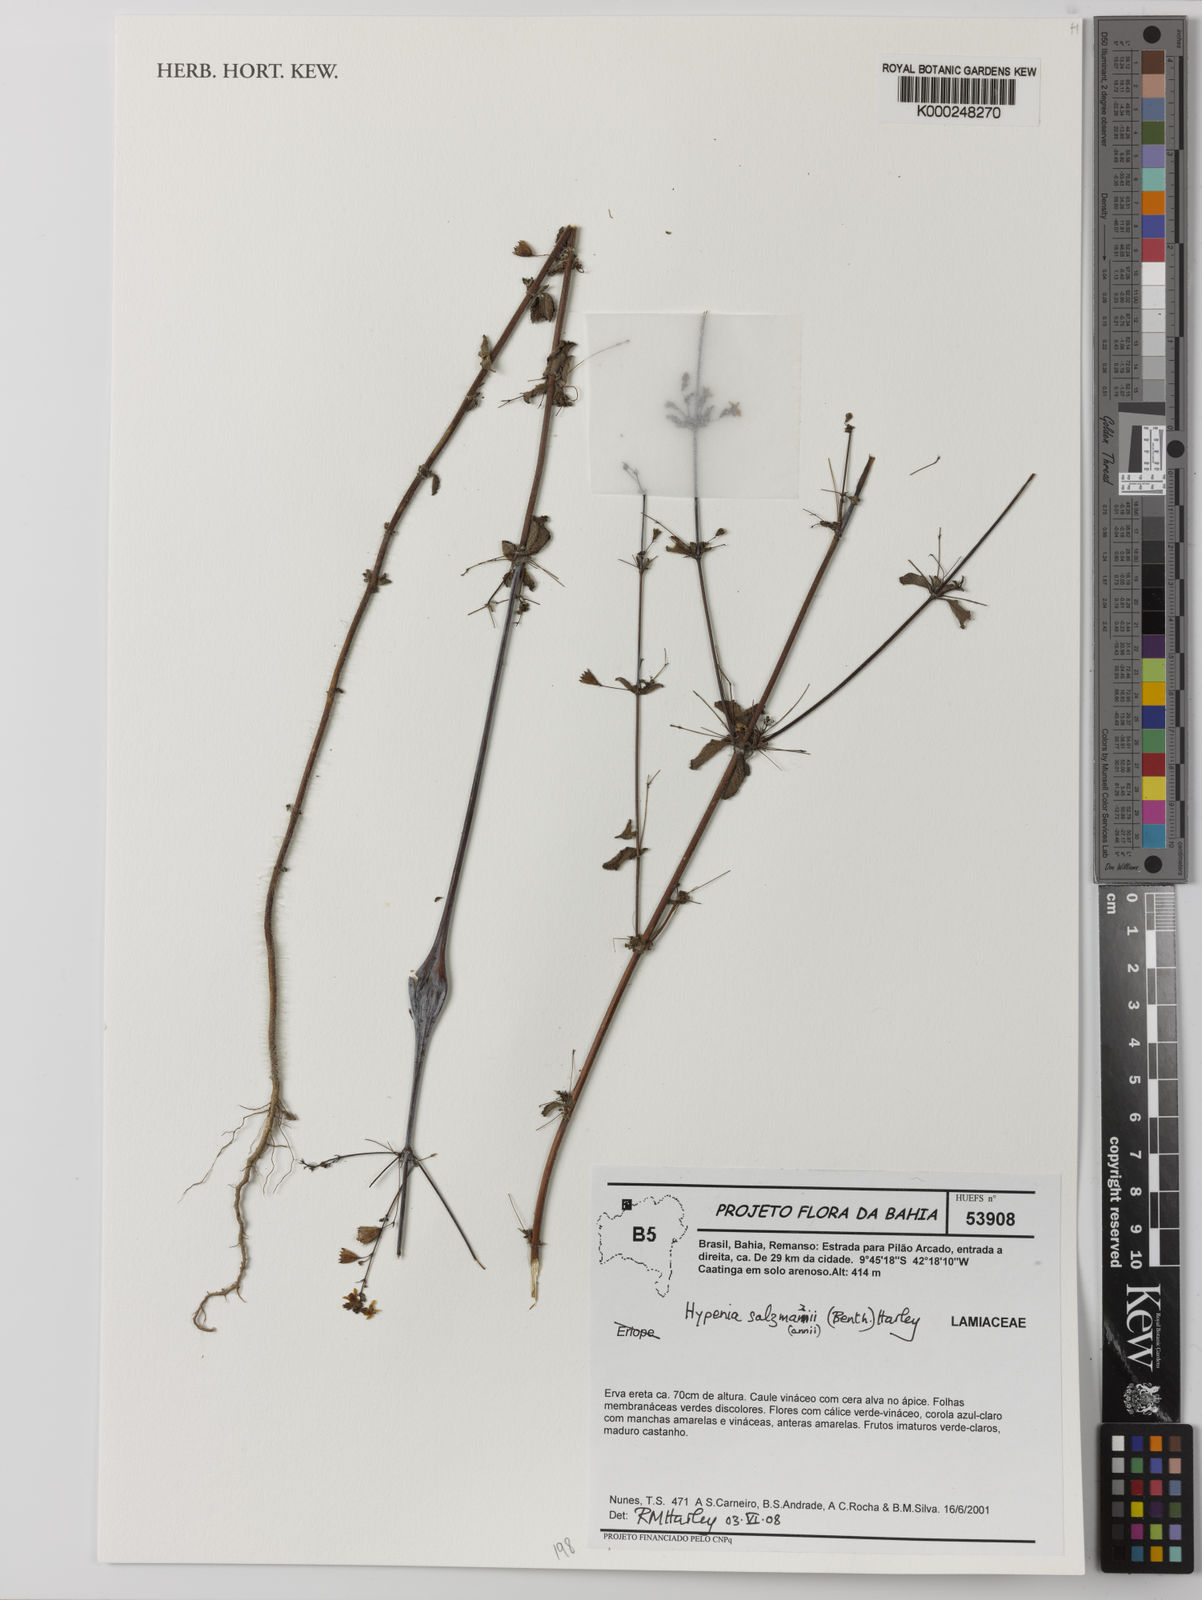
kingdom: Plantae
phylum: Tracheophyta
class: Magnoliopsida
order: Lamiales
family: Lamiaceae
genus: Hypenia
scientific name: Hypenia salzmannii
